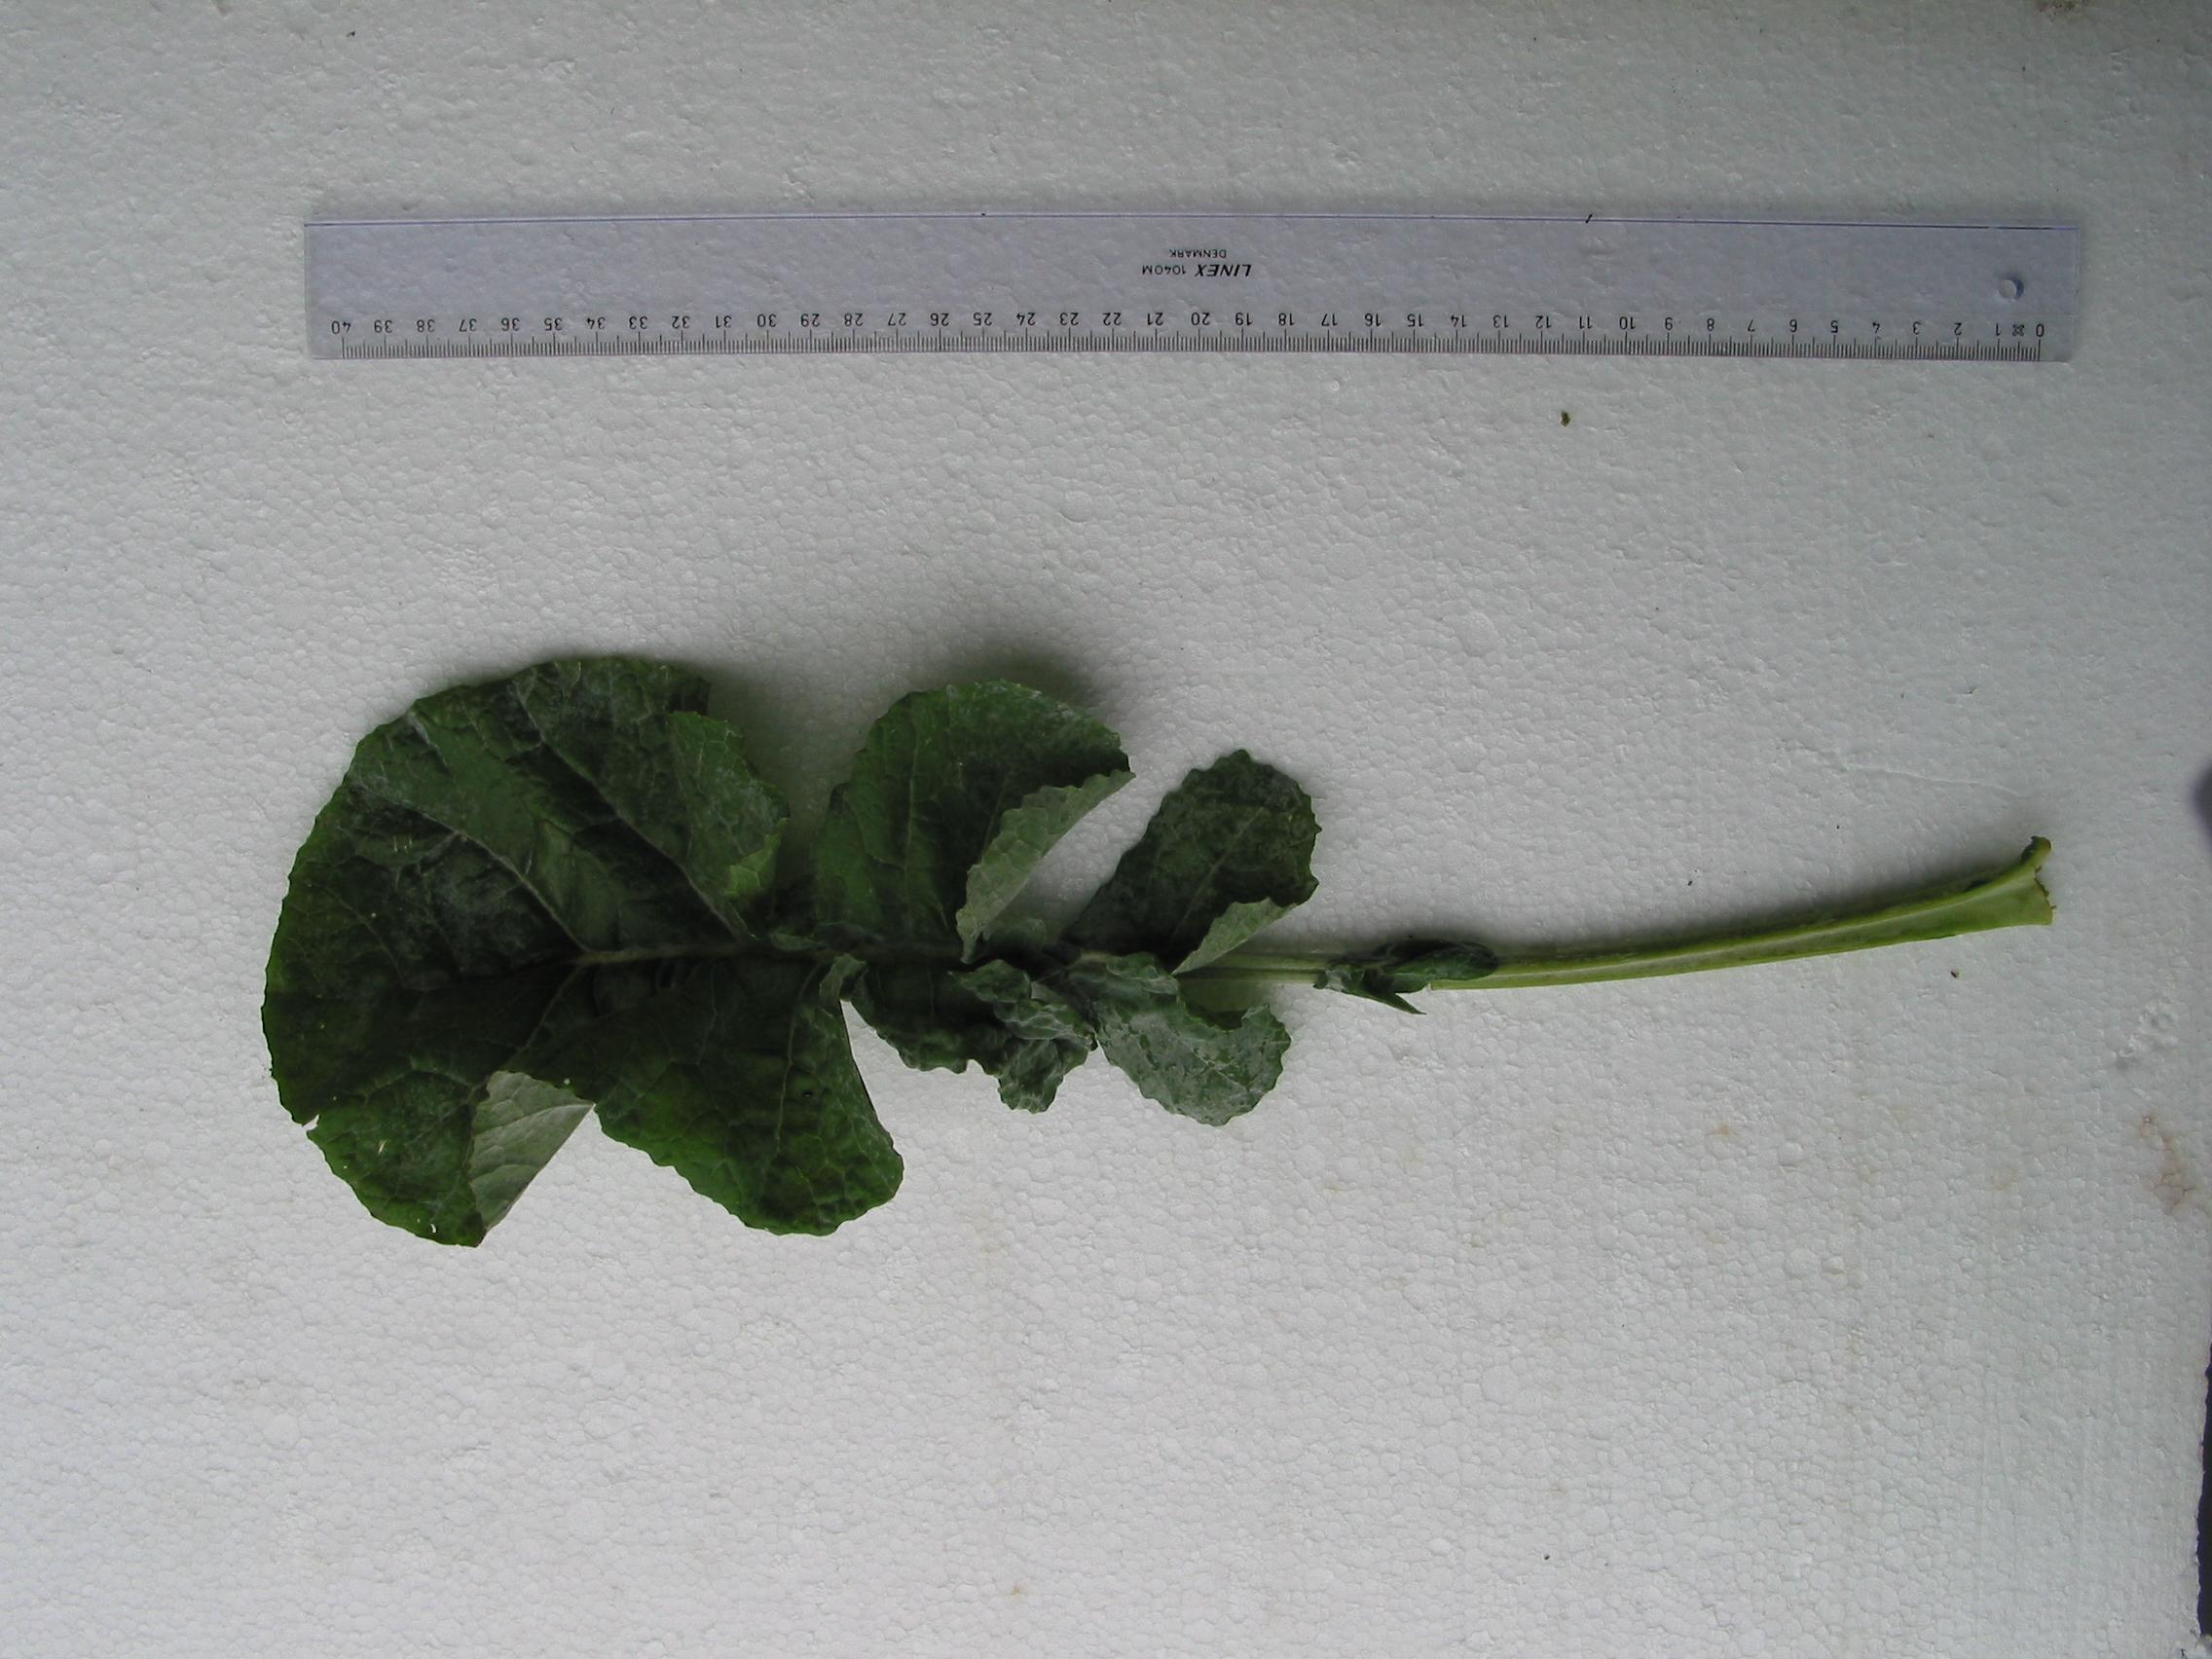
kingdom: Plantae
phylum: Tracheophyta
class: Magnoliopsida
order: Brassicales
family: Brassicaceae
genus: Brassica
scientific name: Brassica napus
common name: Rape
